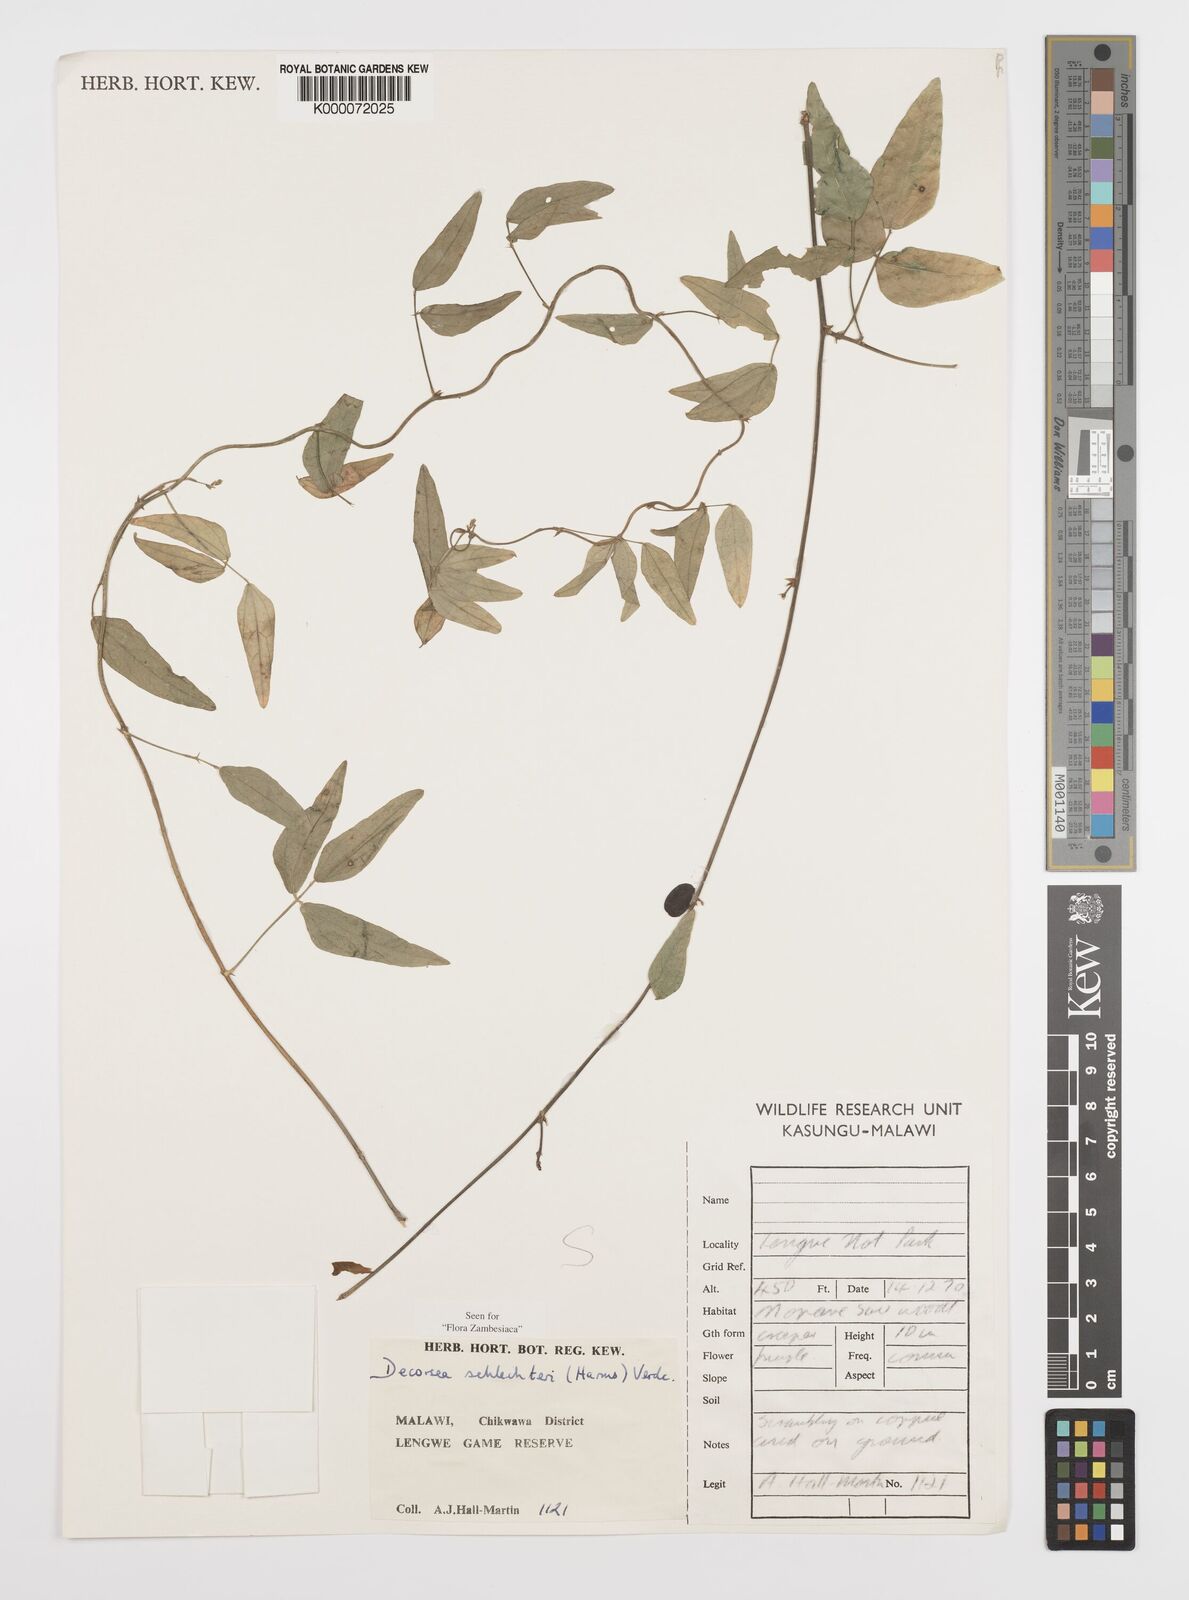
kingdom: Plantae
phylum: Tracheophyta
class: Magnoliopsida
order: Fabales
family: Fabaceae
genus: Decorsea
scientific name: Decorsea schlechteri
